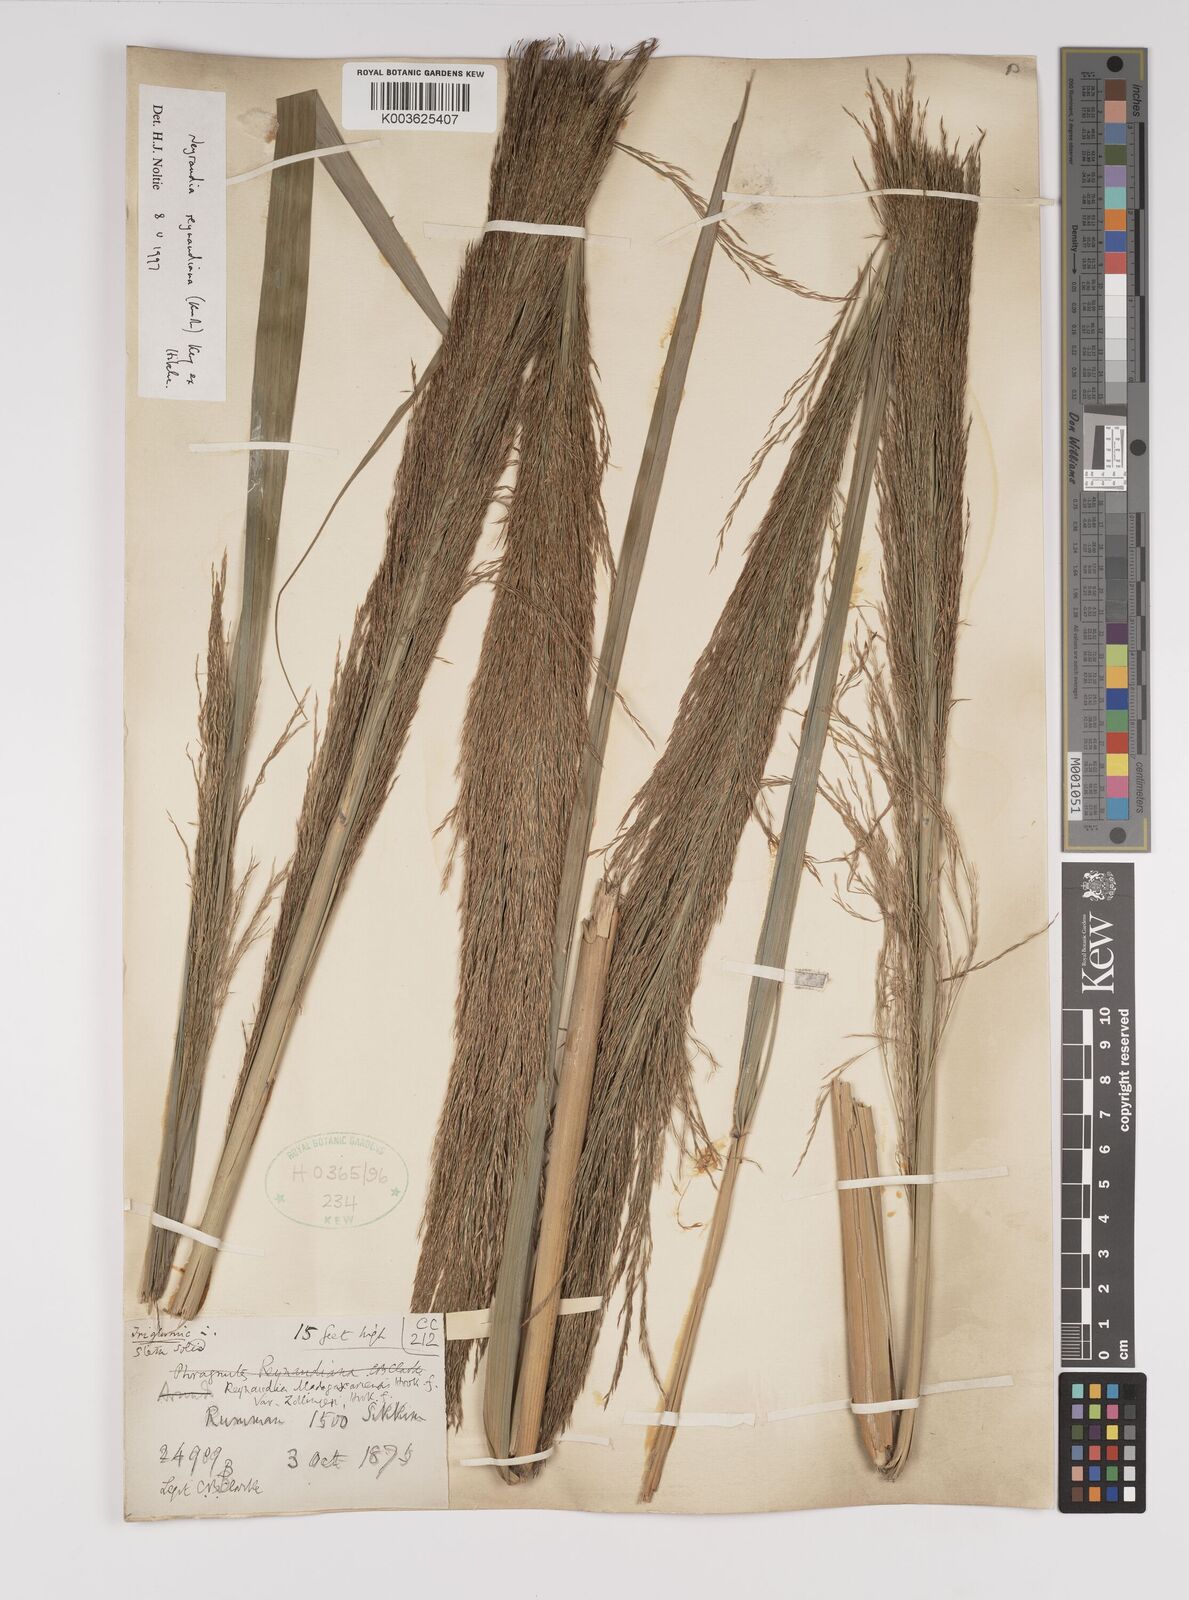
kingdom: Plantae
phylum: Tracheophyta
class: Liliopsida
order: Poales
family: Poaceae
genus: Neyraudia
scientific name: Neyraudia reynaudiana
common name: Silkreed
